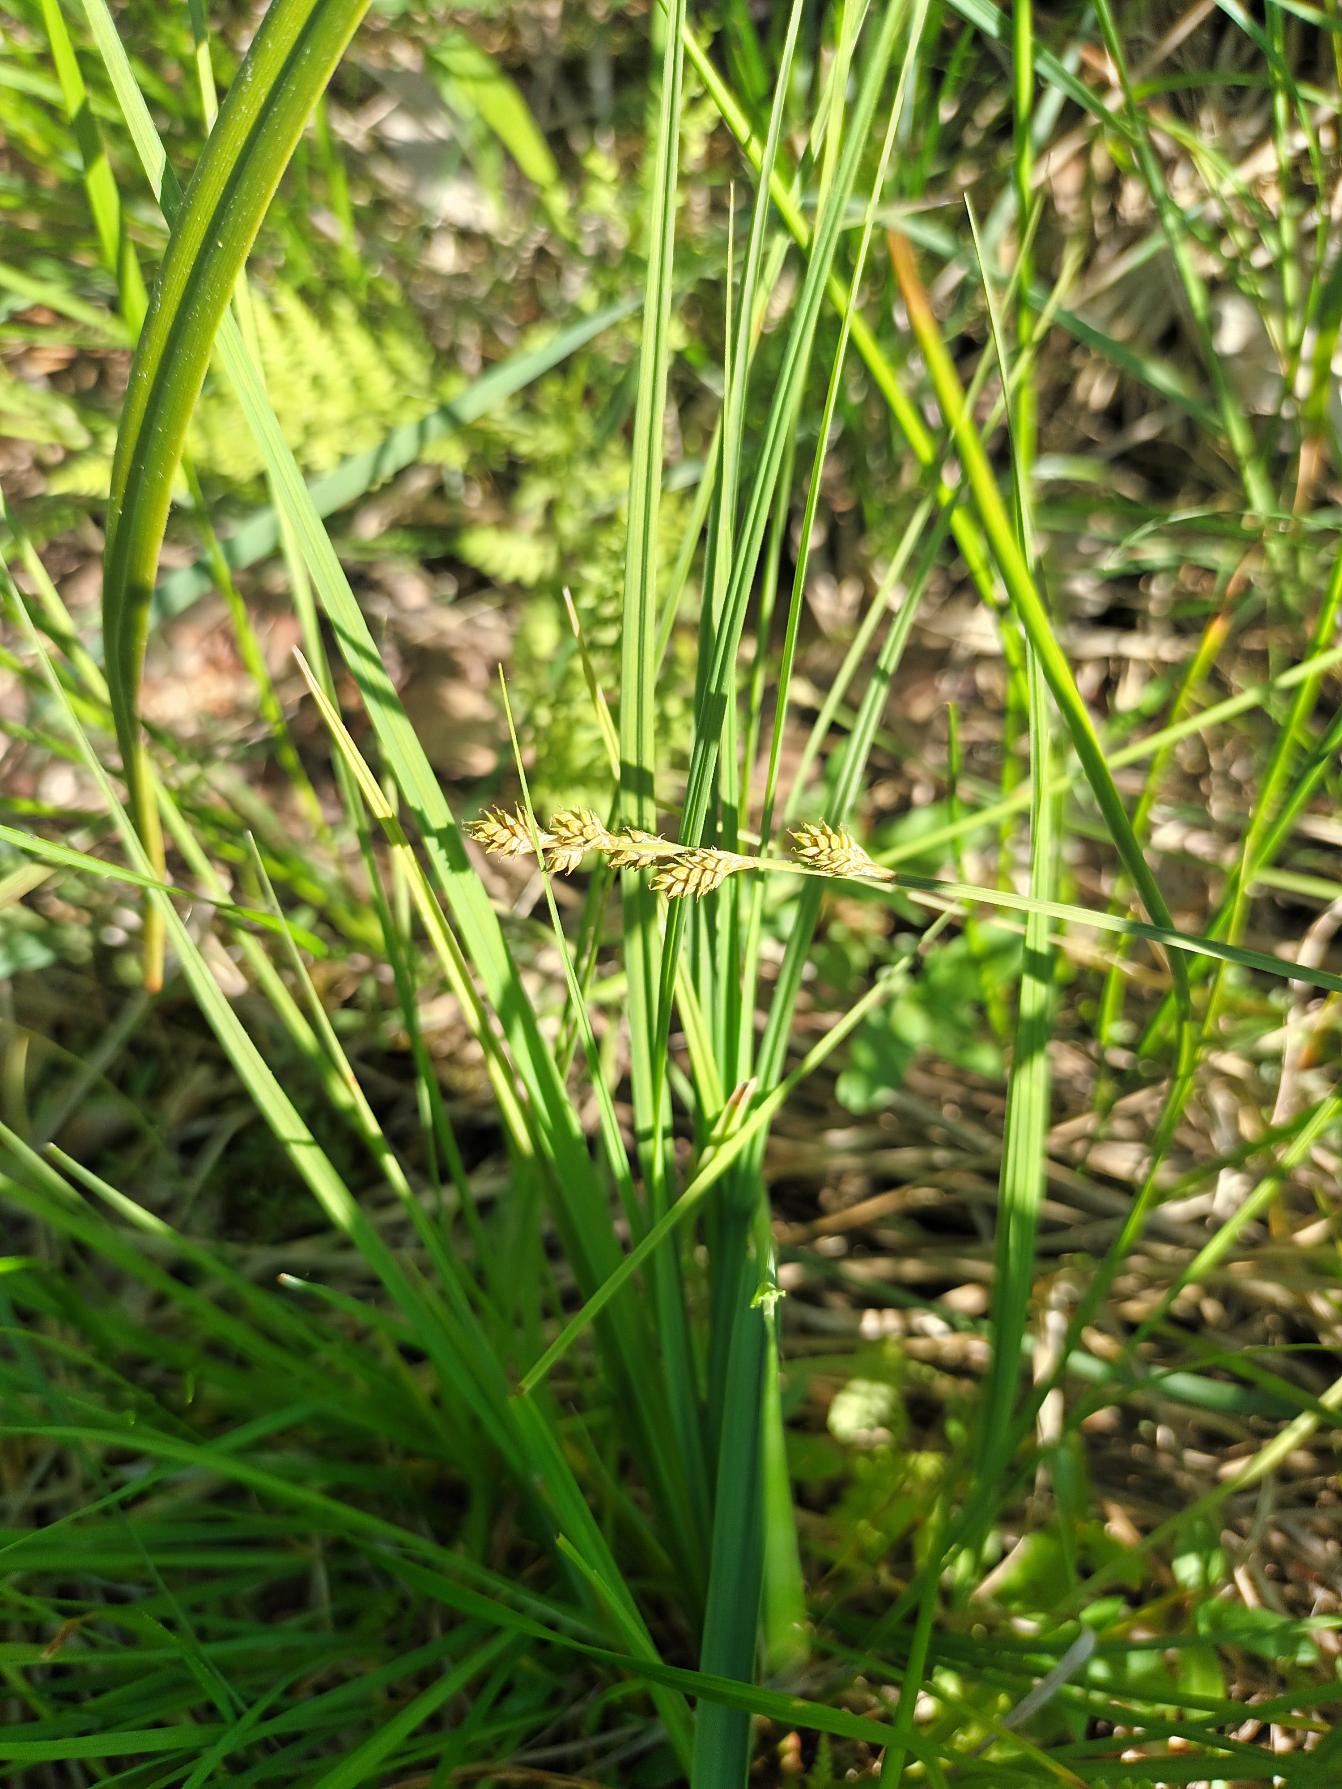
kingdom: Plantae
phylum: Tracheophyta
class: Liliopsida
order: Poales
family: Cyperaceae
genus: Carex
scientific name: Carex canescens
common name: Grå star
